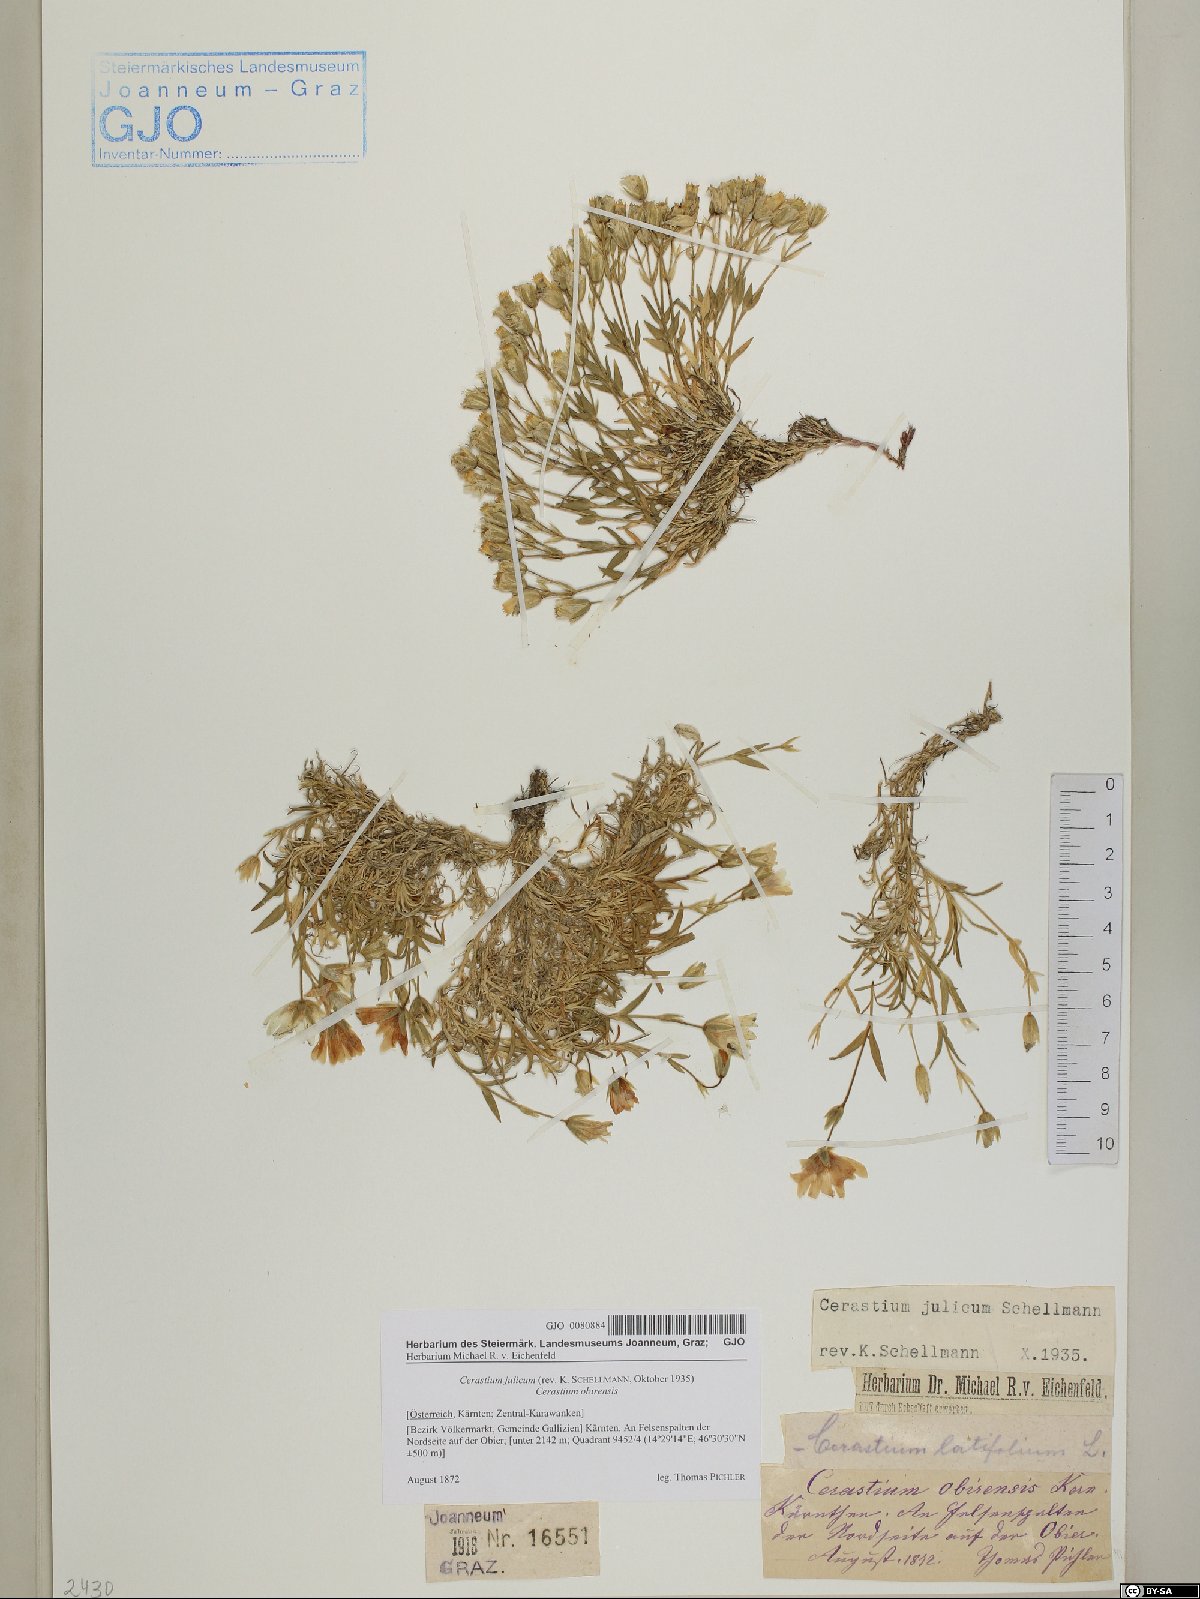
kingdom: Plantae
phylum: Tracheophyta
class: Magnoliopsida
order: Caryophyllales
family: Caryophyllaceae
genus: Cerastium
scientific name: Cerastium julicum
